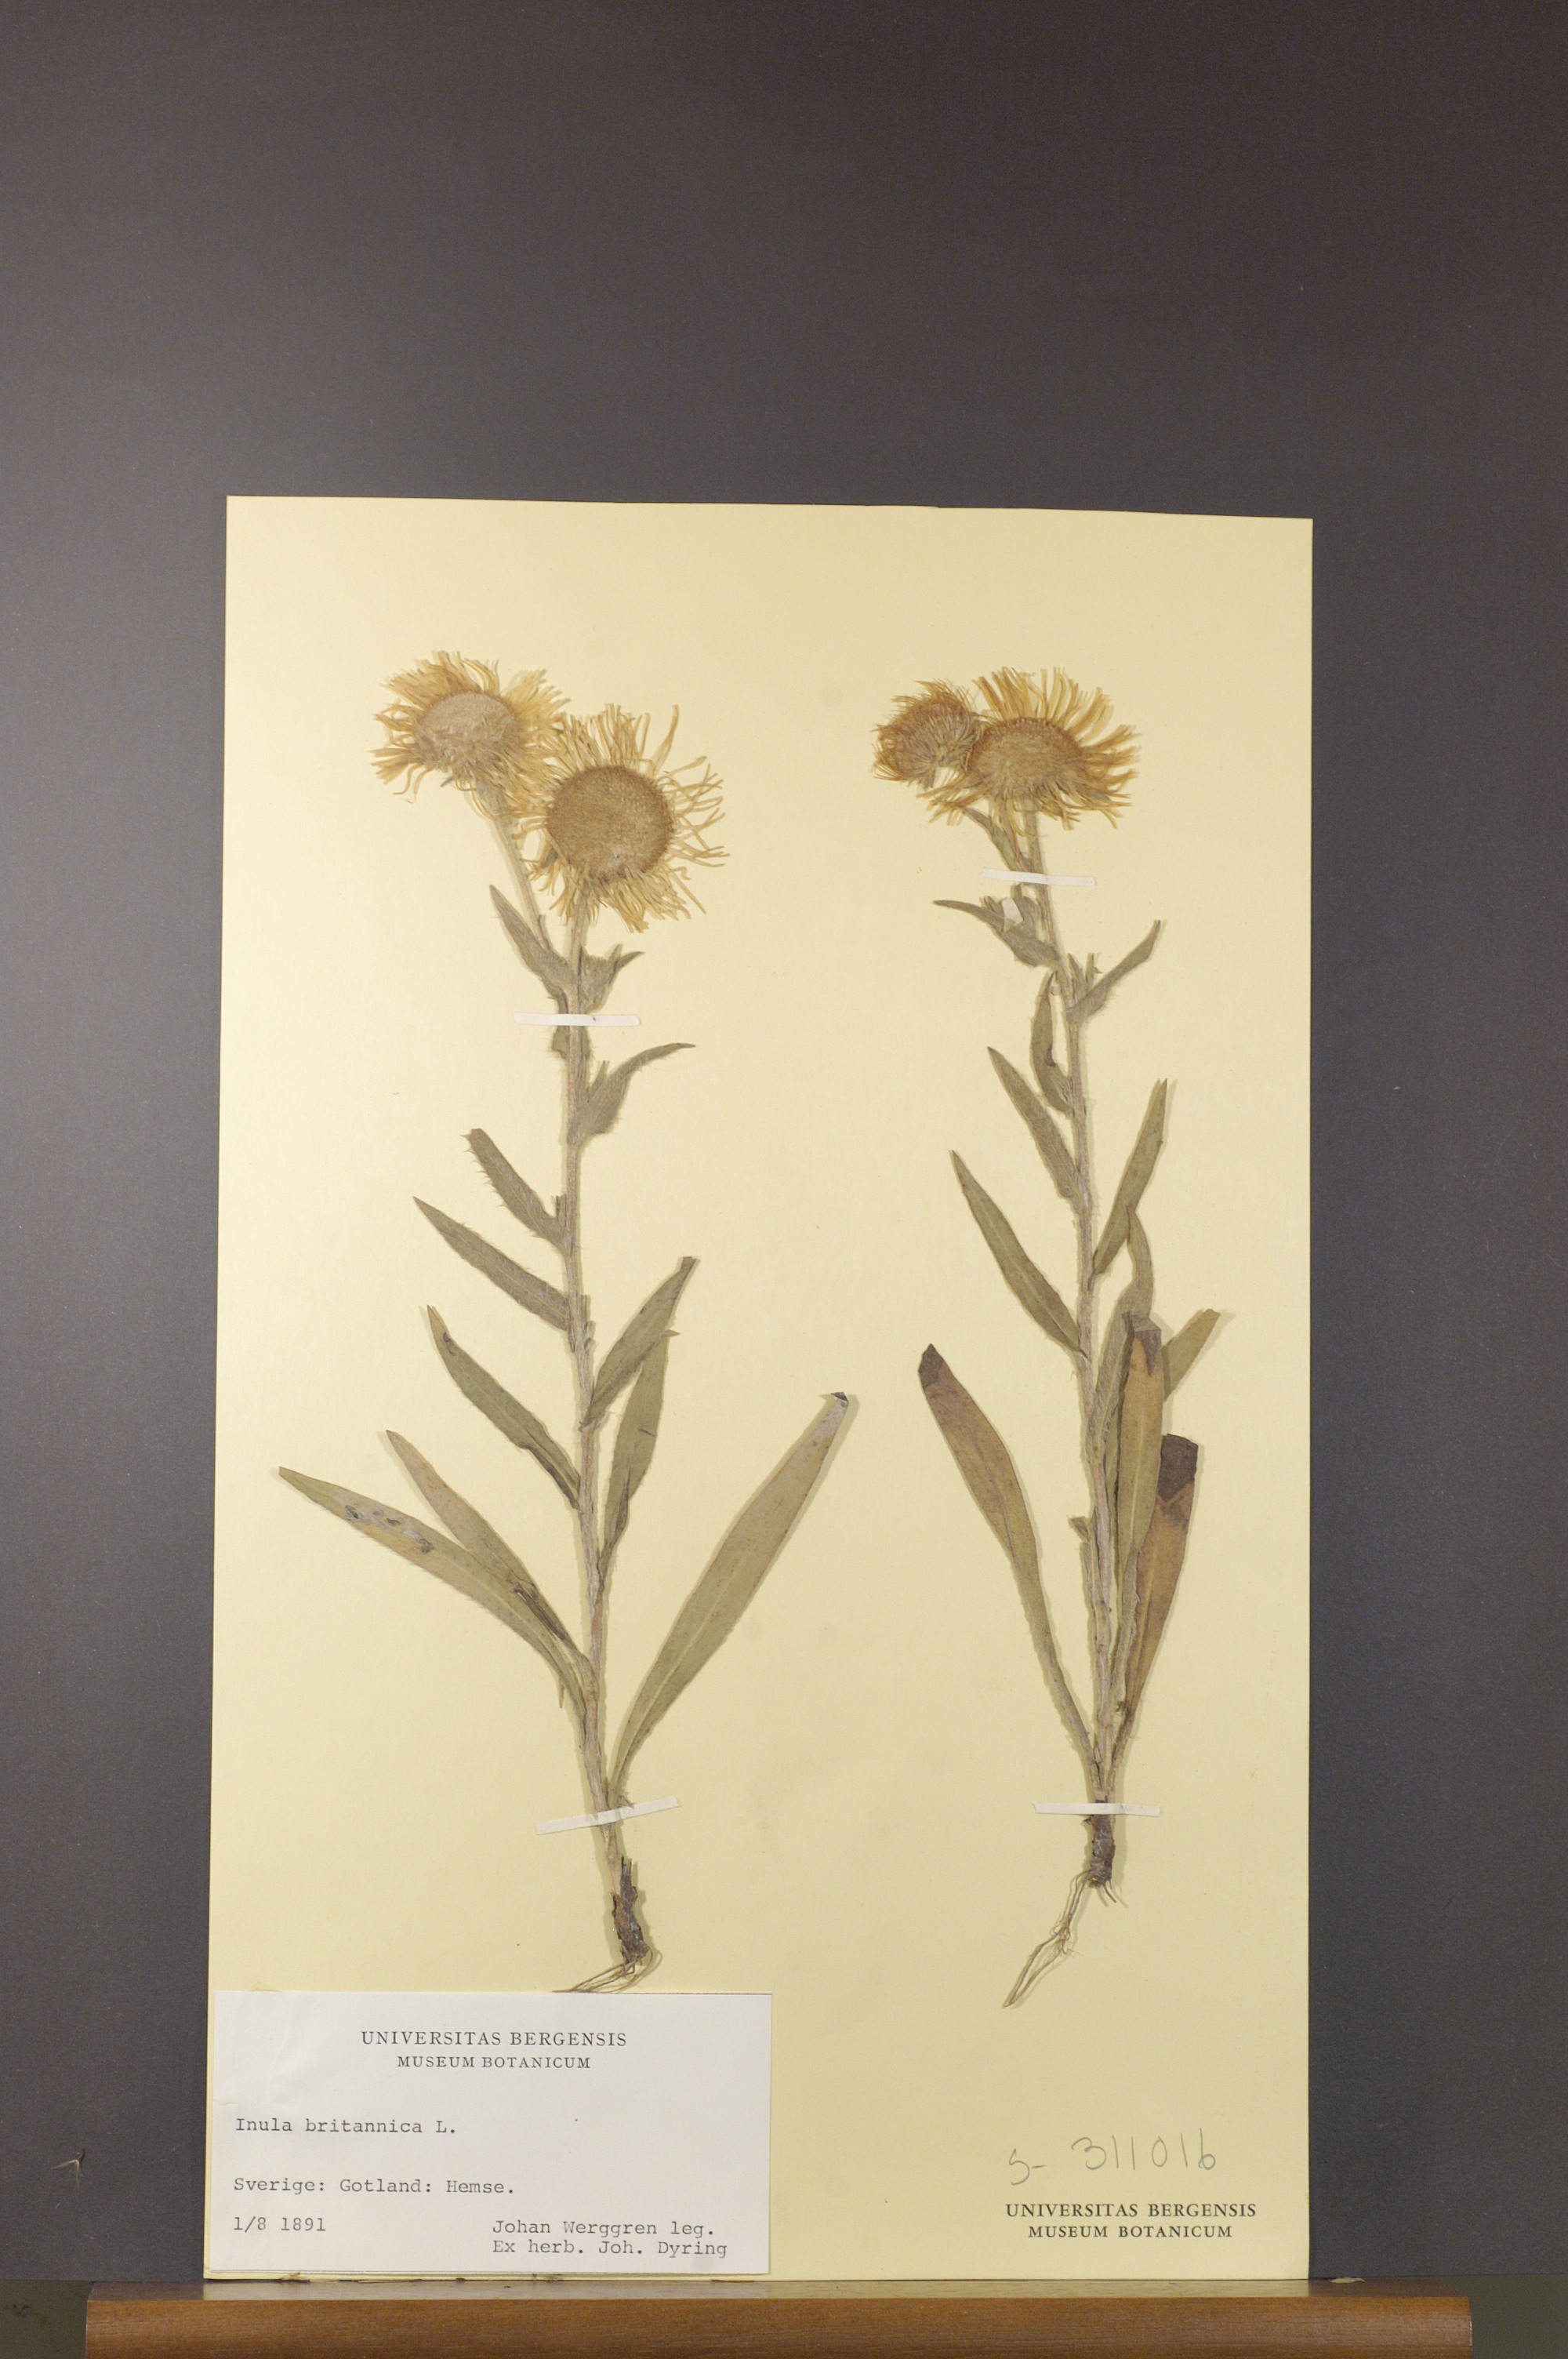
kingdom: Plantae
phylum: Tracheophyta
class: Magnoliopsida
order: Asterales
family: Asteraceae
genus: Pentanema
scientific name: Pentanema britannicum
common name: British elecampane
